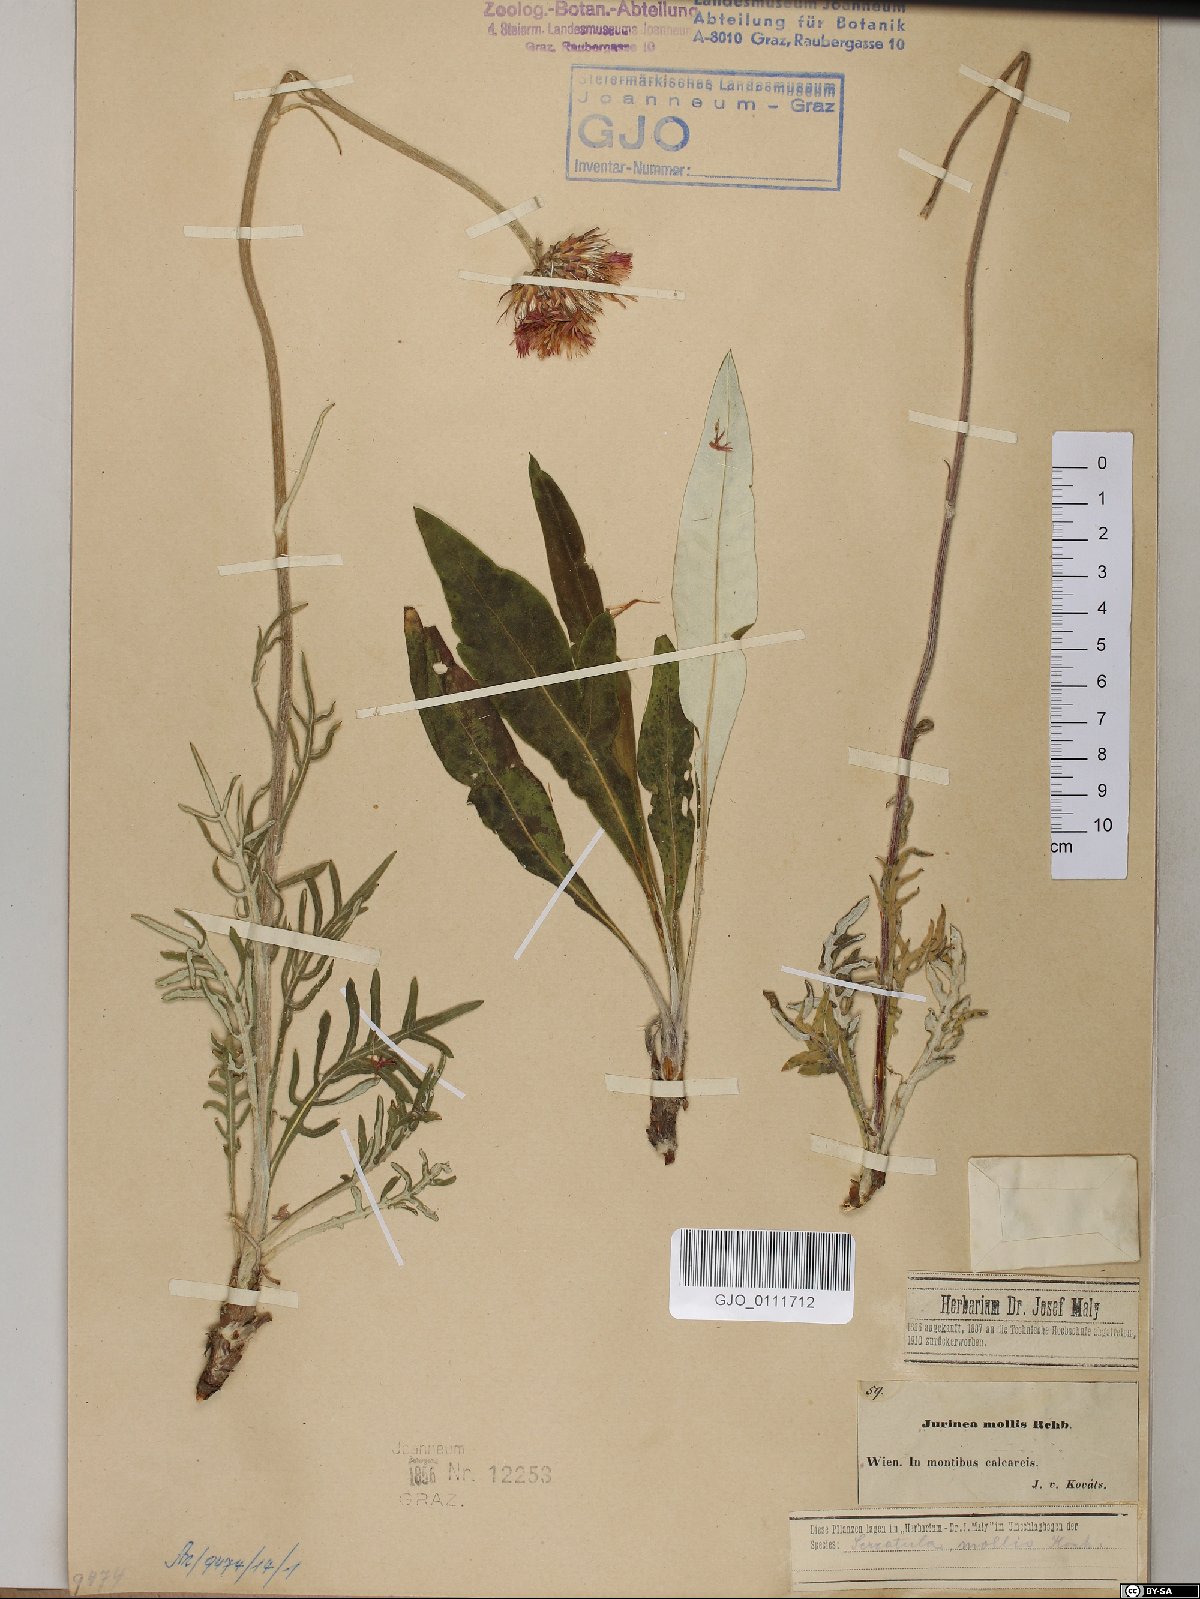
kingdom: Plantae
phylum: Tracheophyta
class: Magnoliopsida
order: Asterales
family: Asteraceae
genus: Jurinea
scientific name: Jurinea mollis
